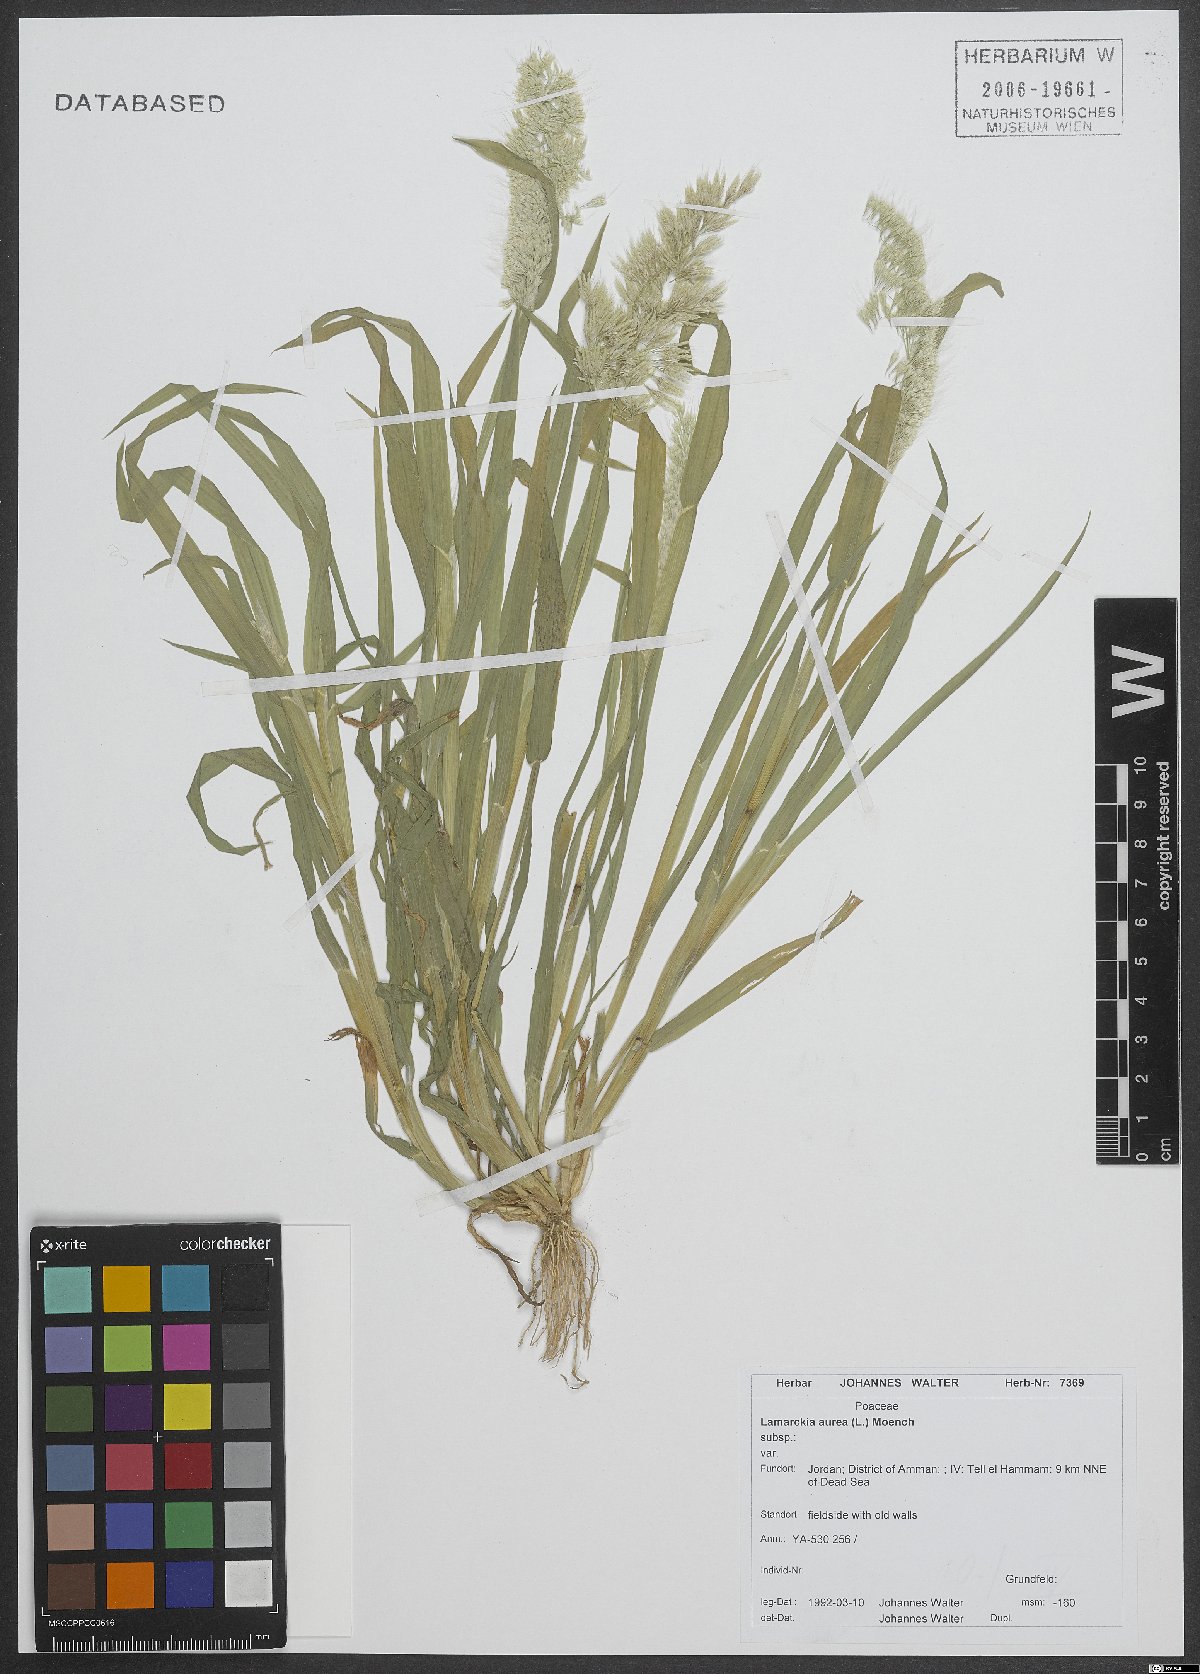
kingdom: Plantae
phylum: Tracheophyta
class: Liliopsida
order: Poales
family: Poaceae
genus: Lamarckia
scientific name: Lamarckia aurea
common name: Golden dog's-tail
